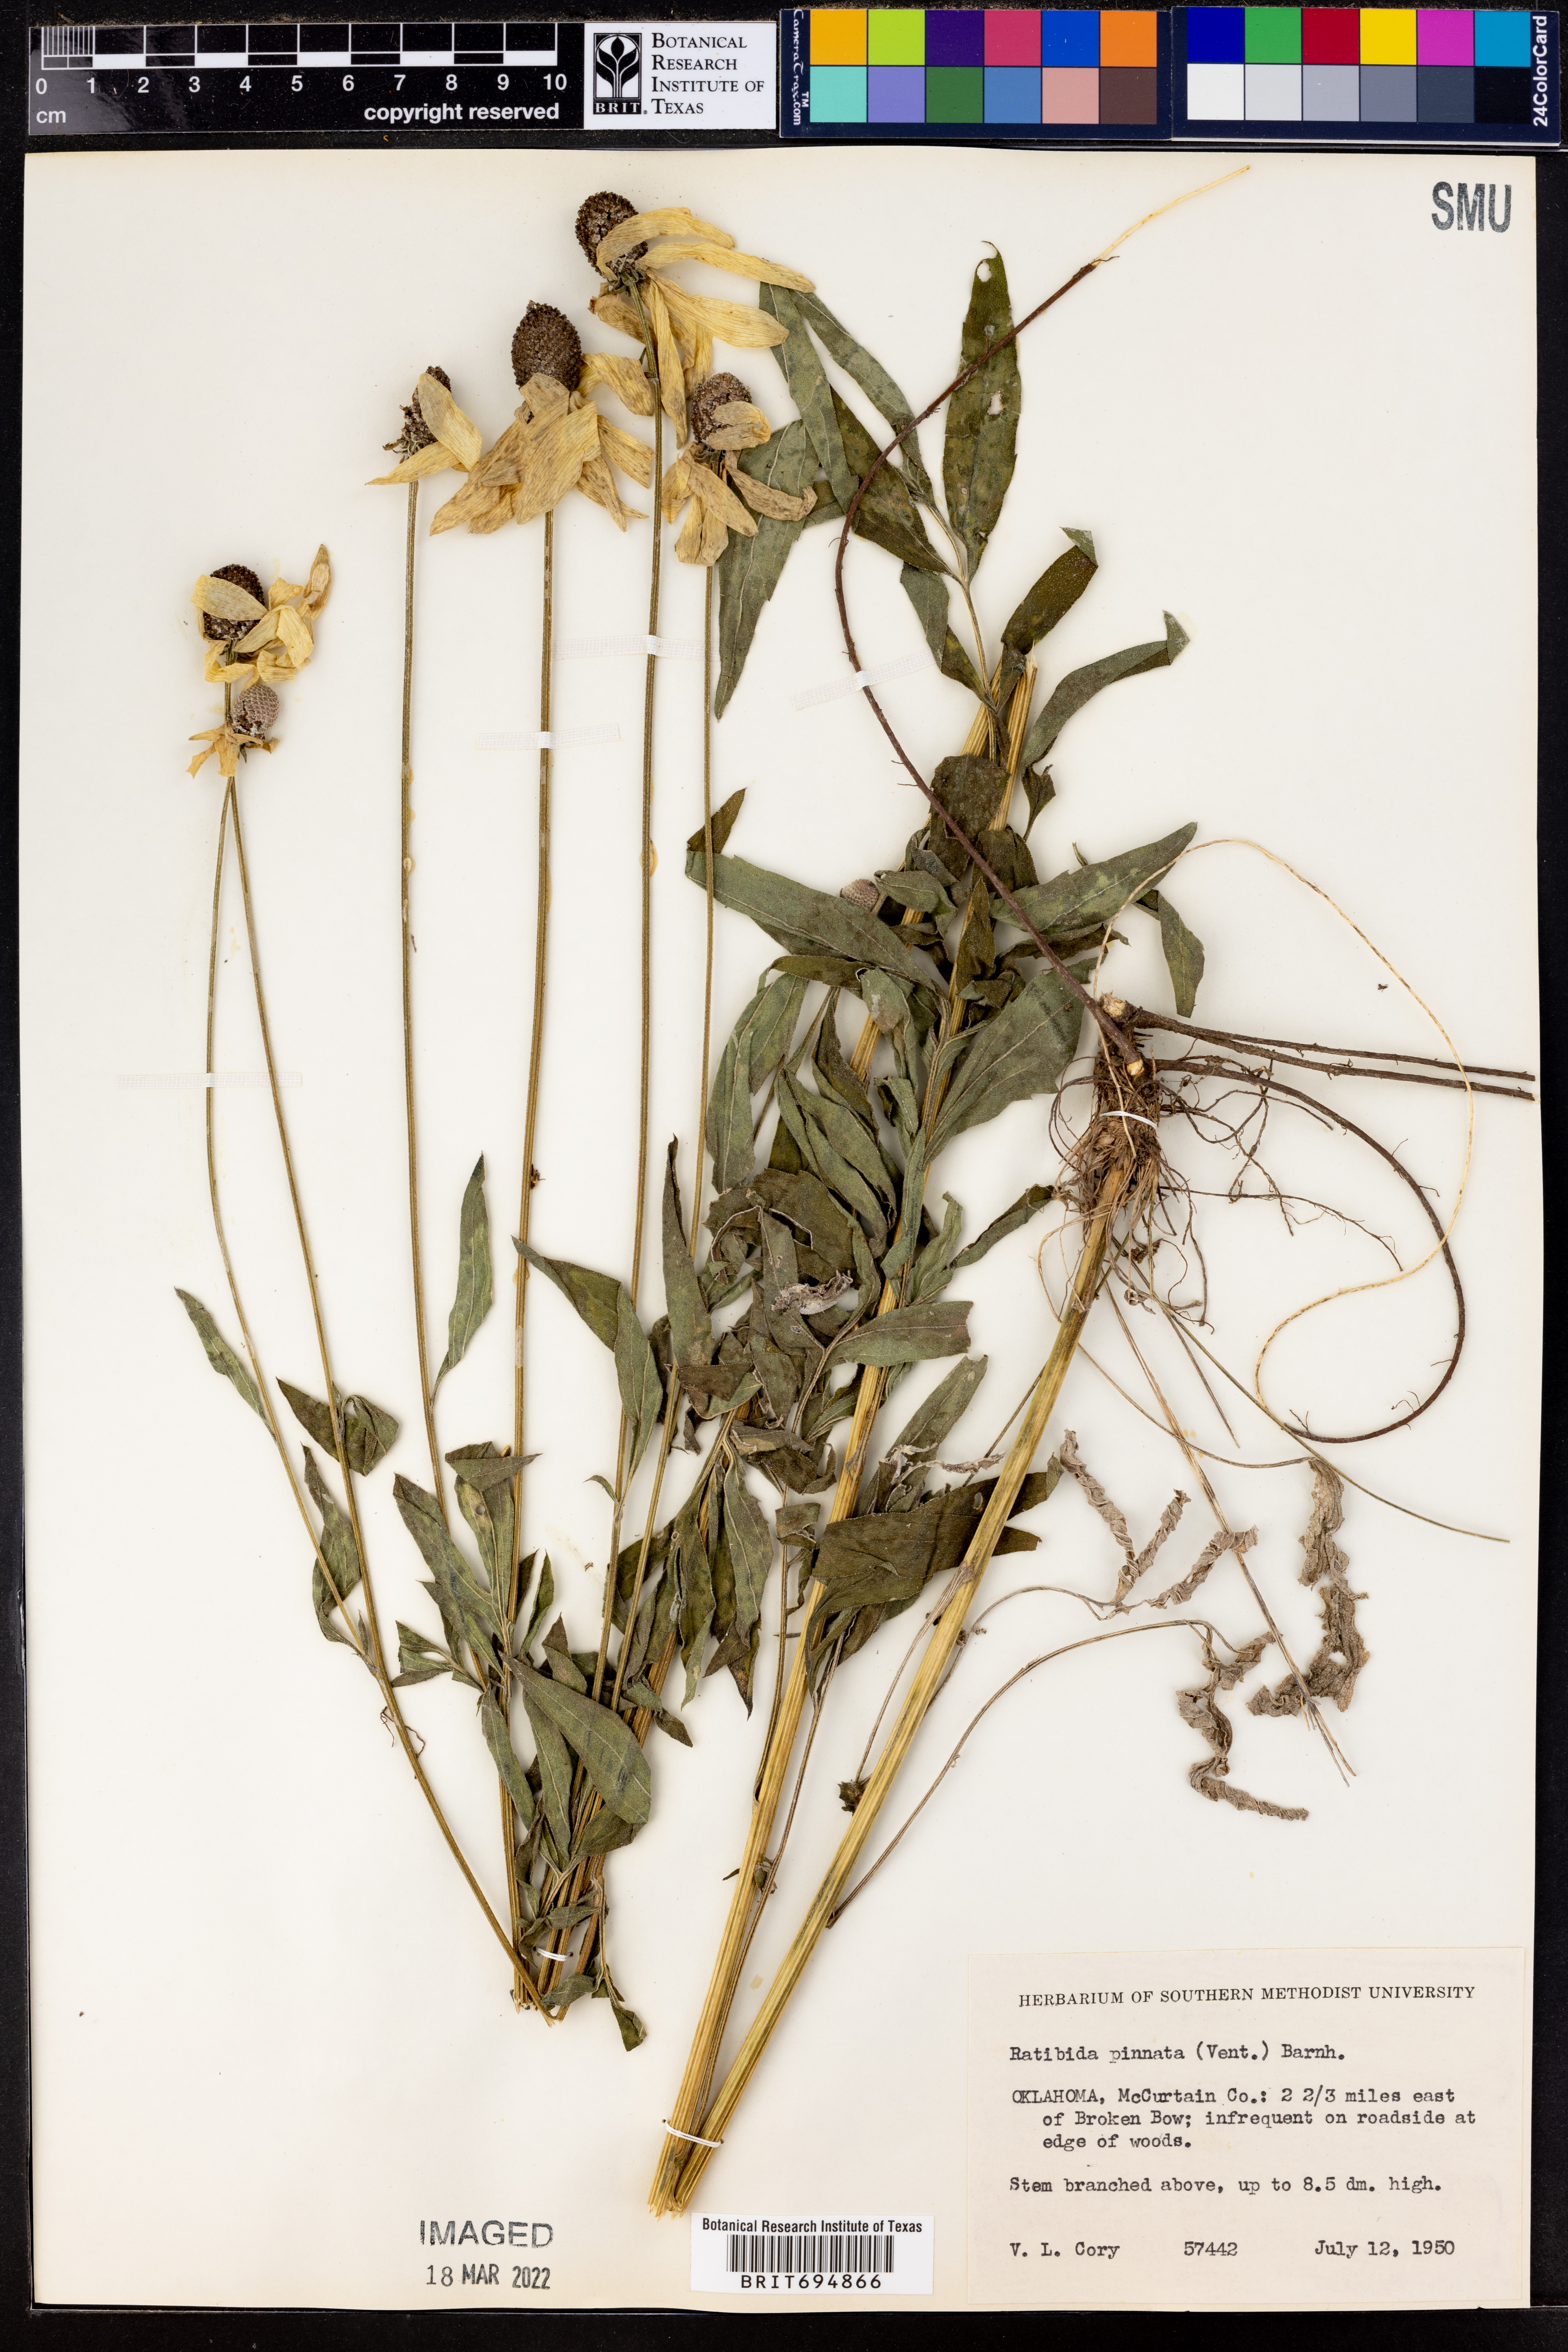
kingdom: Plantae
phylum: Tracheophyta
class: Magnoliopsida
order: Asterales
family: Asteraceae
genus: Ratibida
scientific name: Ratibida pinnata
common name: Drooping prairie-coneflower
